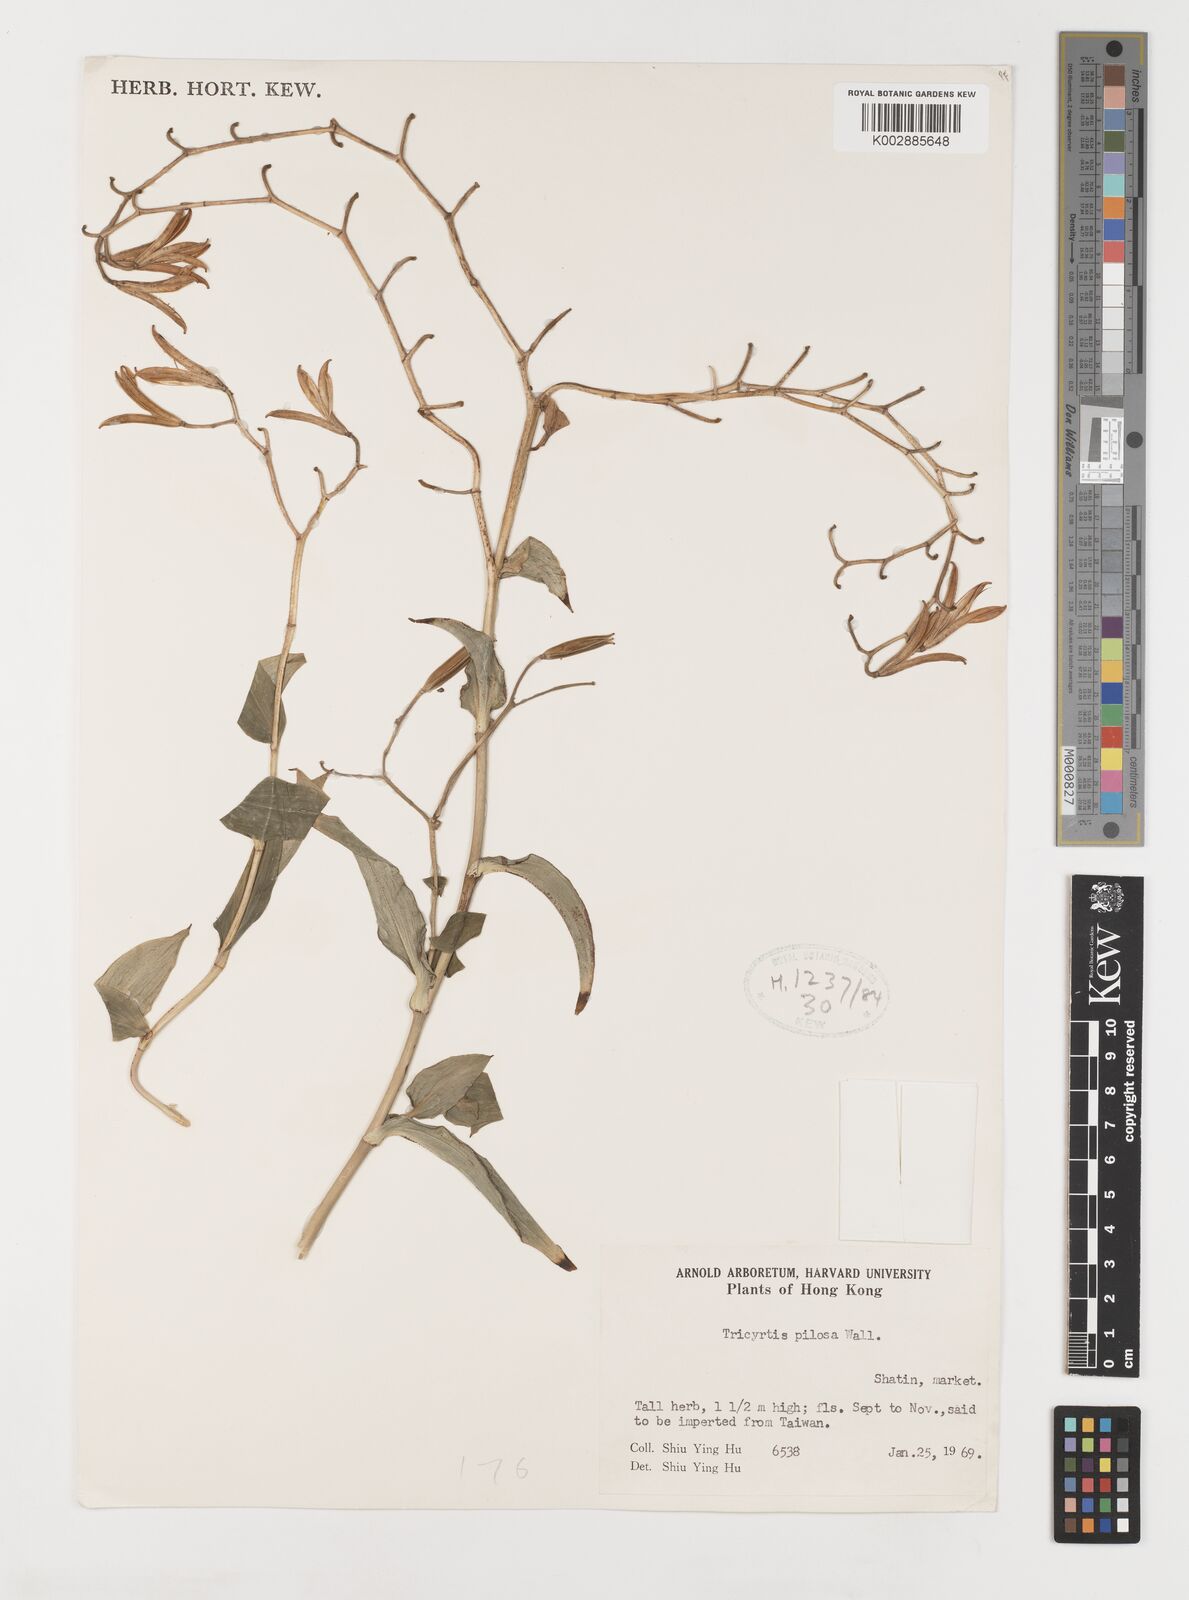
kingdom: Plantae
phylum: Tracheophyta
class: Liliopsida
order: Liliales
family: Liliaceae
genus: Tricyrtis
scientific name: Tricyrtis maculata
